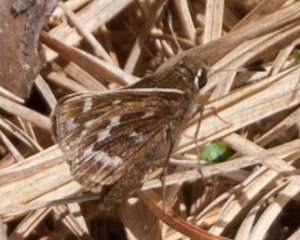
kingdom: Animalia
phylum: Arthropoda
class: Insecta
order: Lepidoptera
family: Hesperiidae
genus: Hesperia
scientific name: Hesperia metea
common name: Cobweb Skipper
